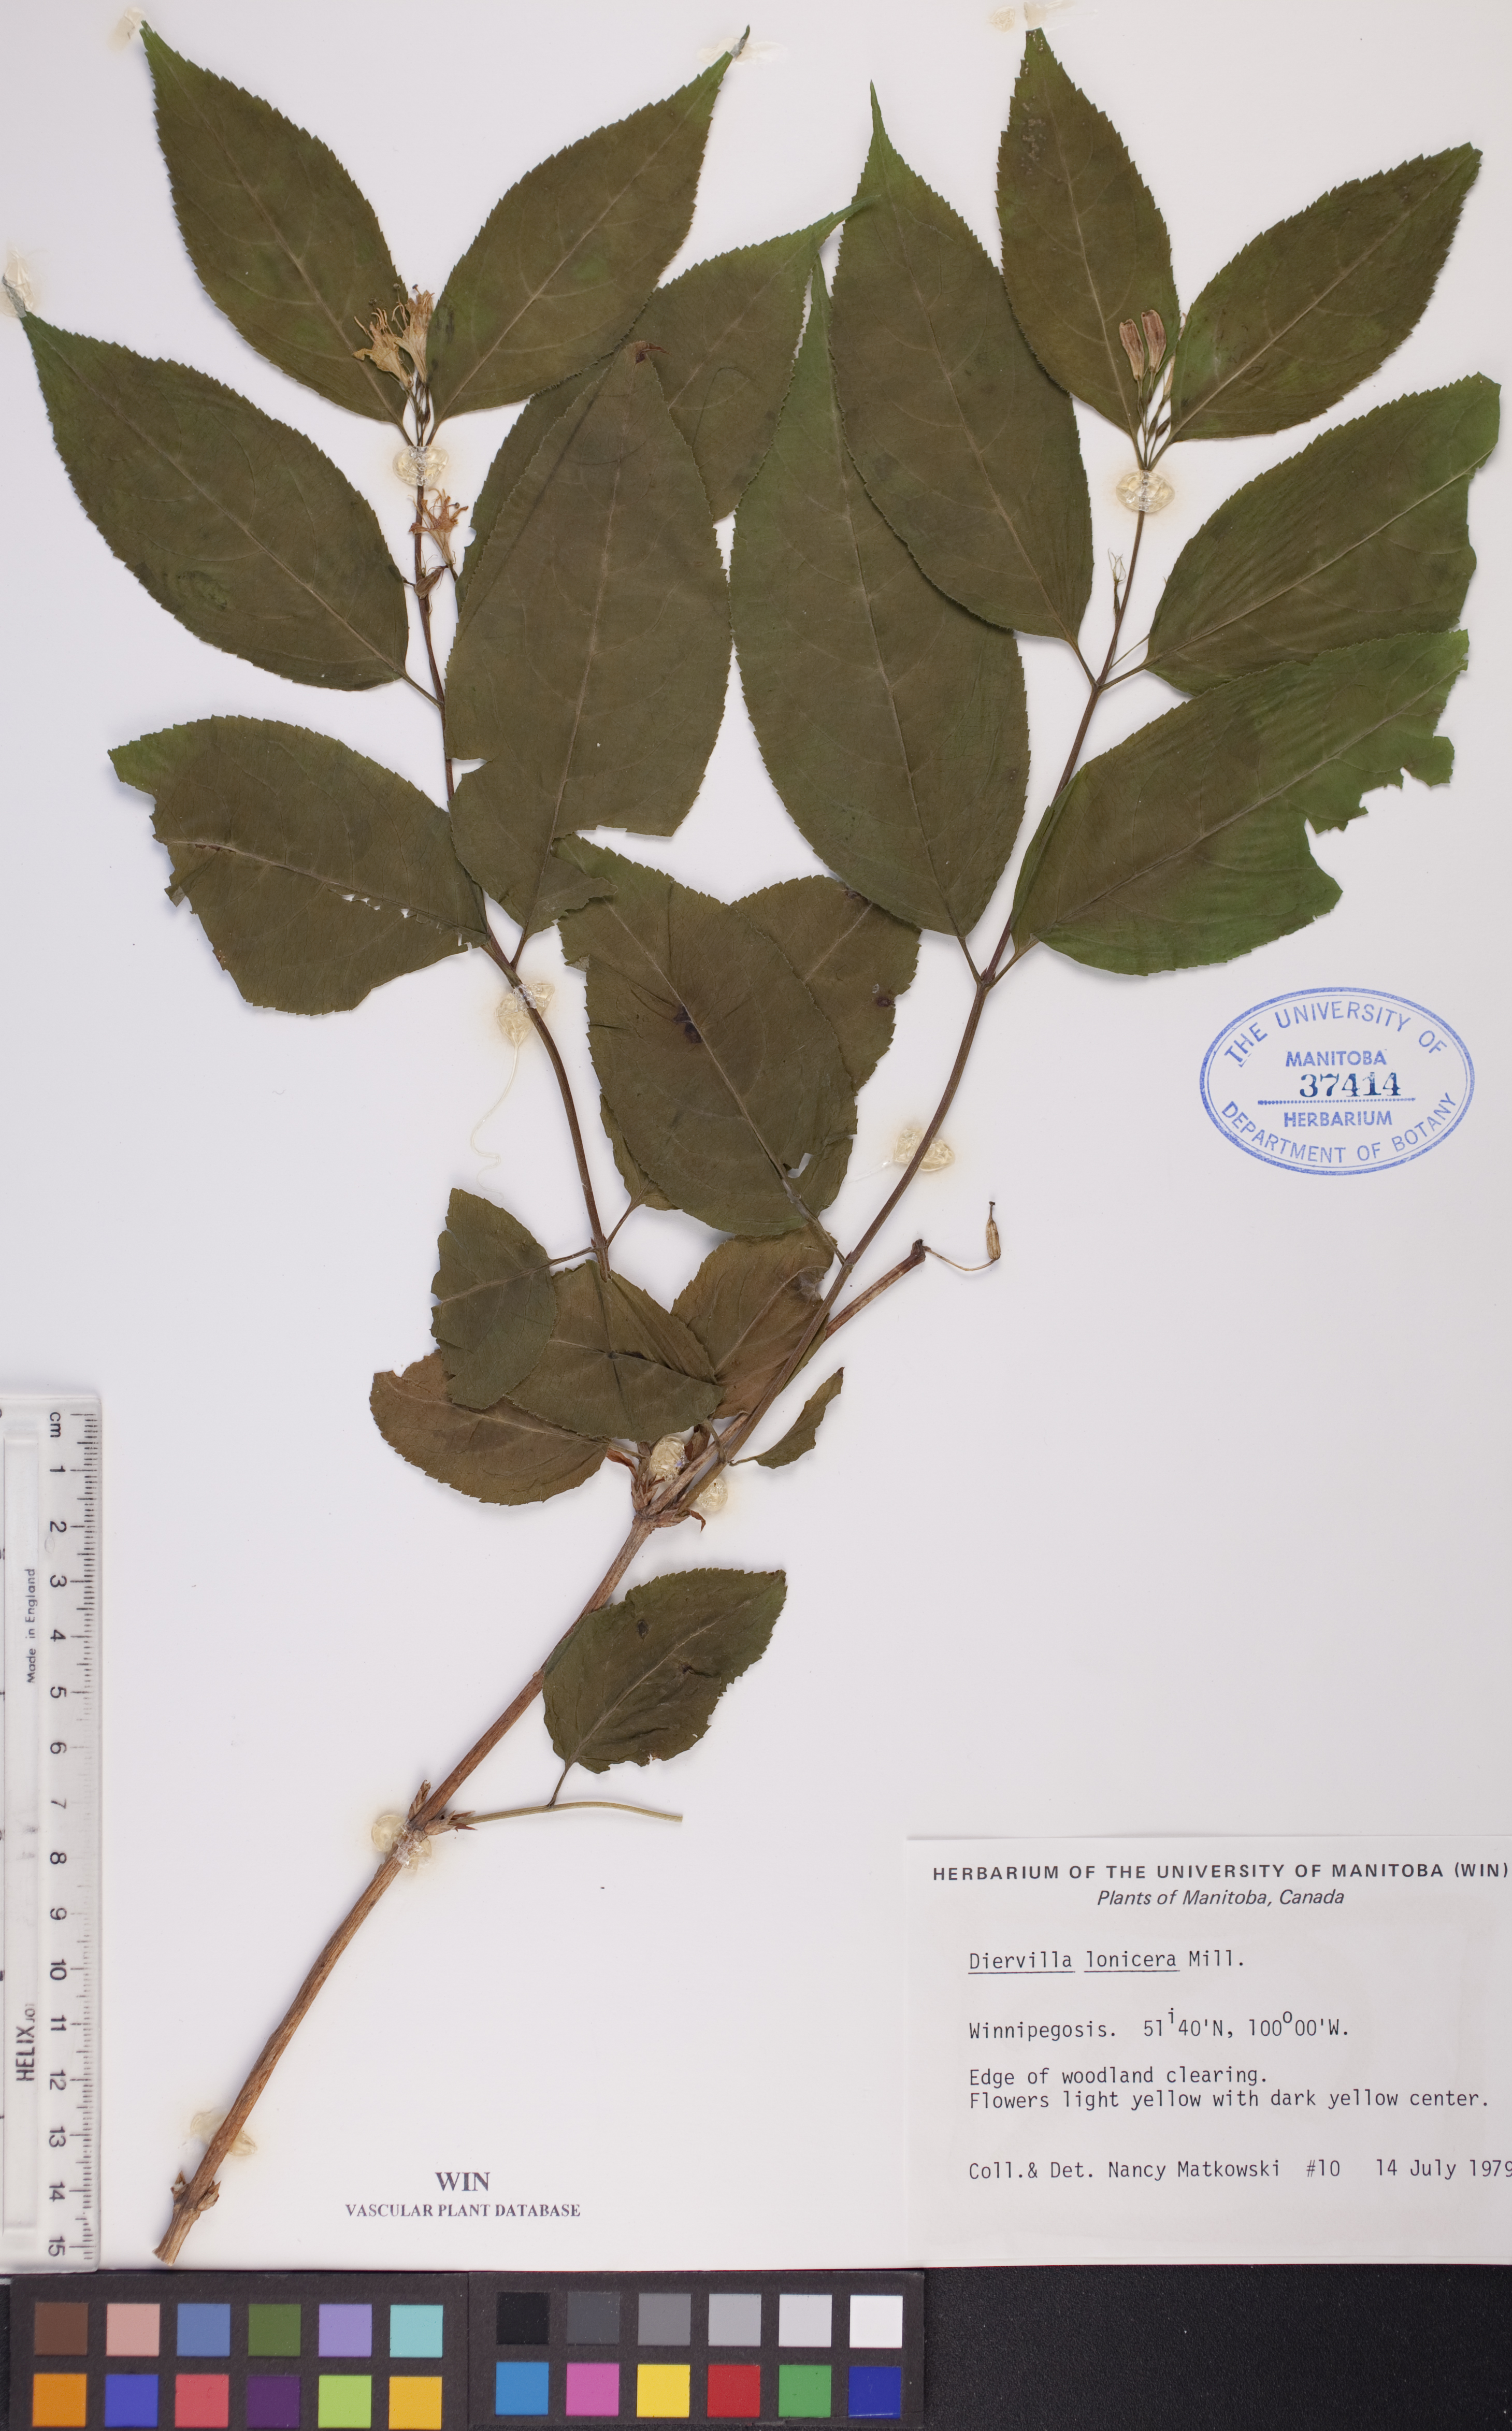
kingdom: Plantae
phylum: Tracheophyta
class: Magnoliopsida
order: Dipsacales
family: Caprifoliaceae
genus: Diervilla
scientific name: Diervilla lonicera
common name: Bush-honeysuckle
